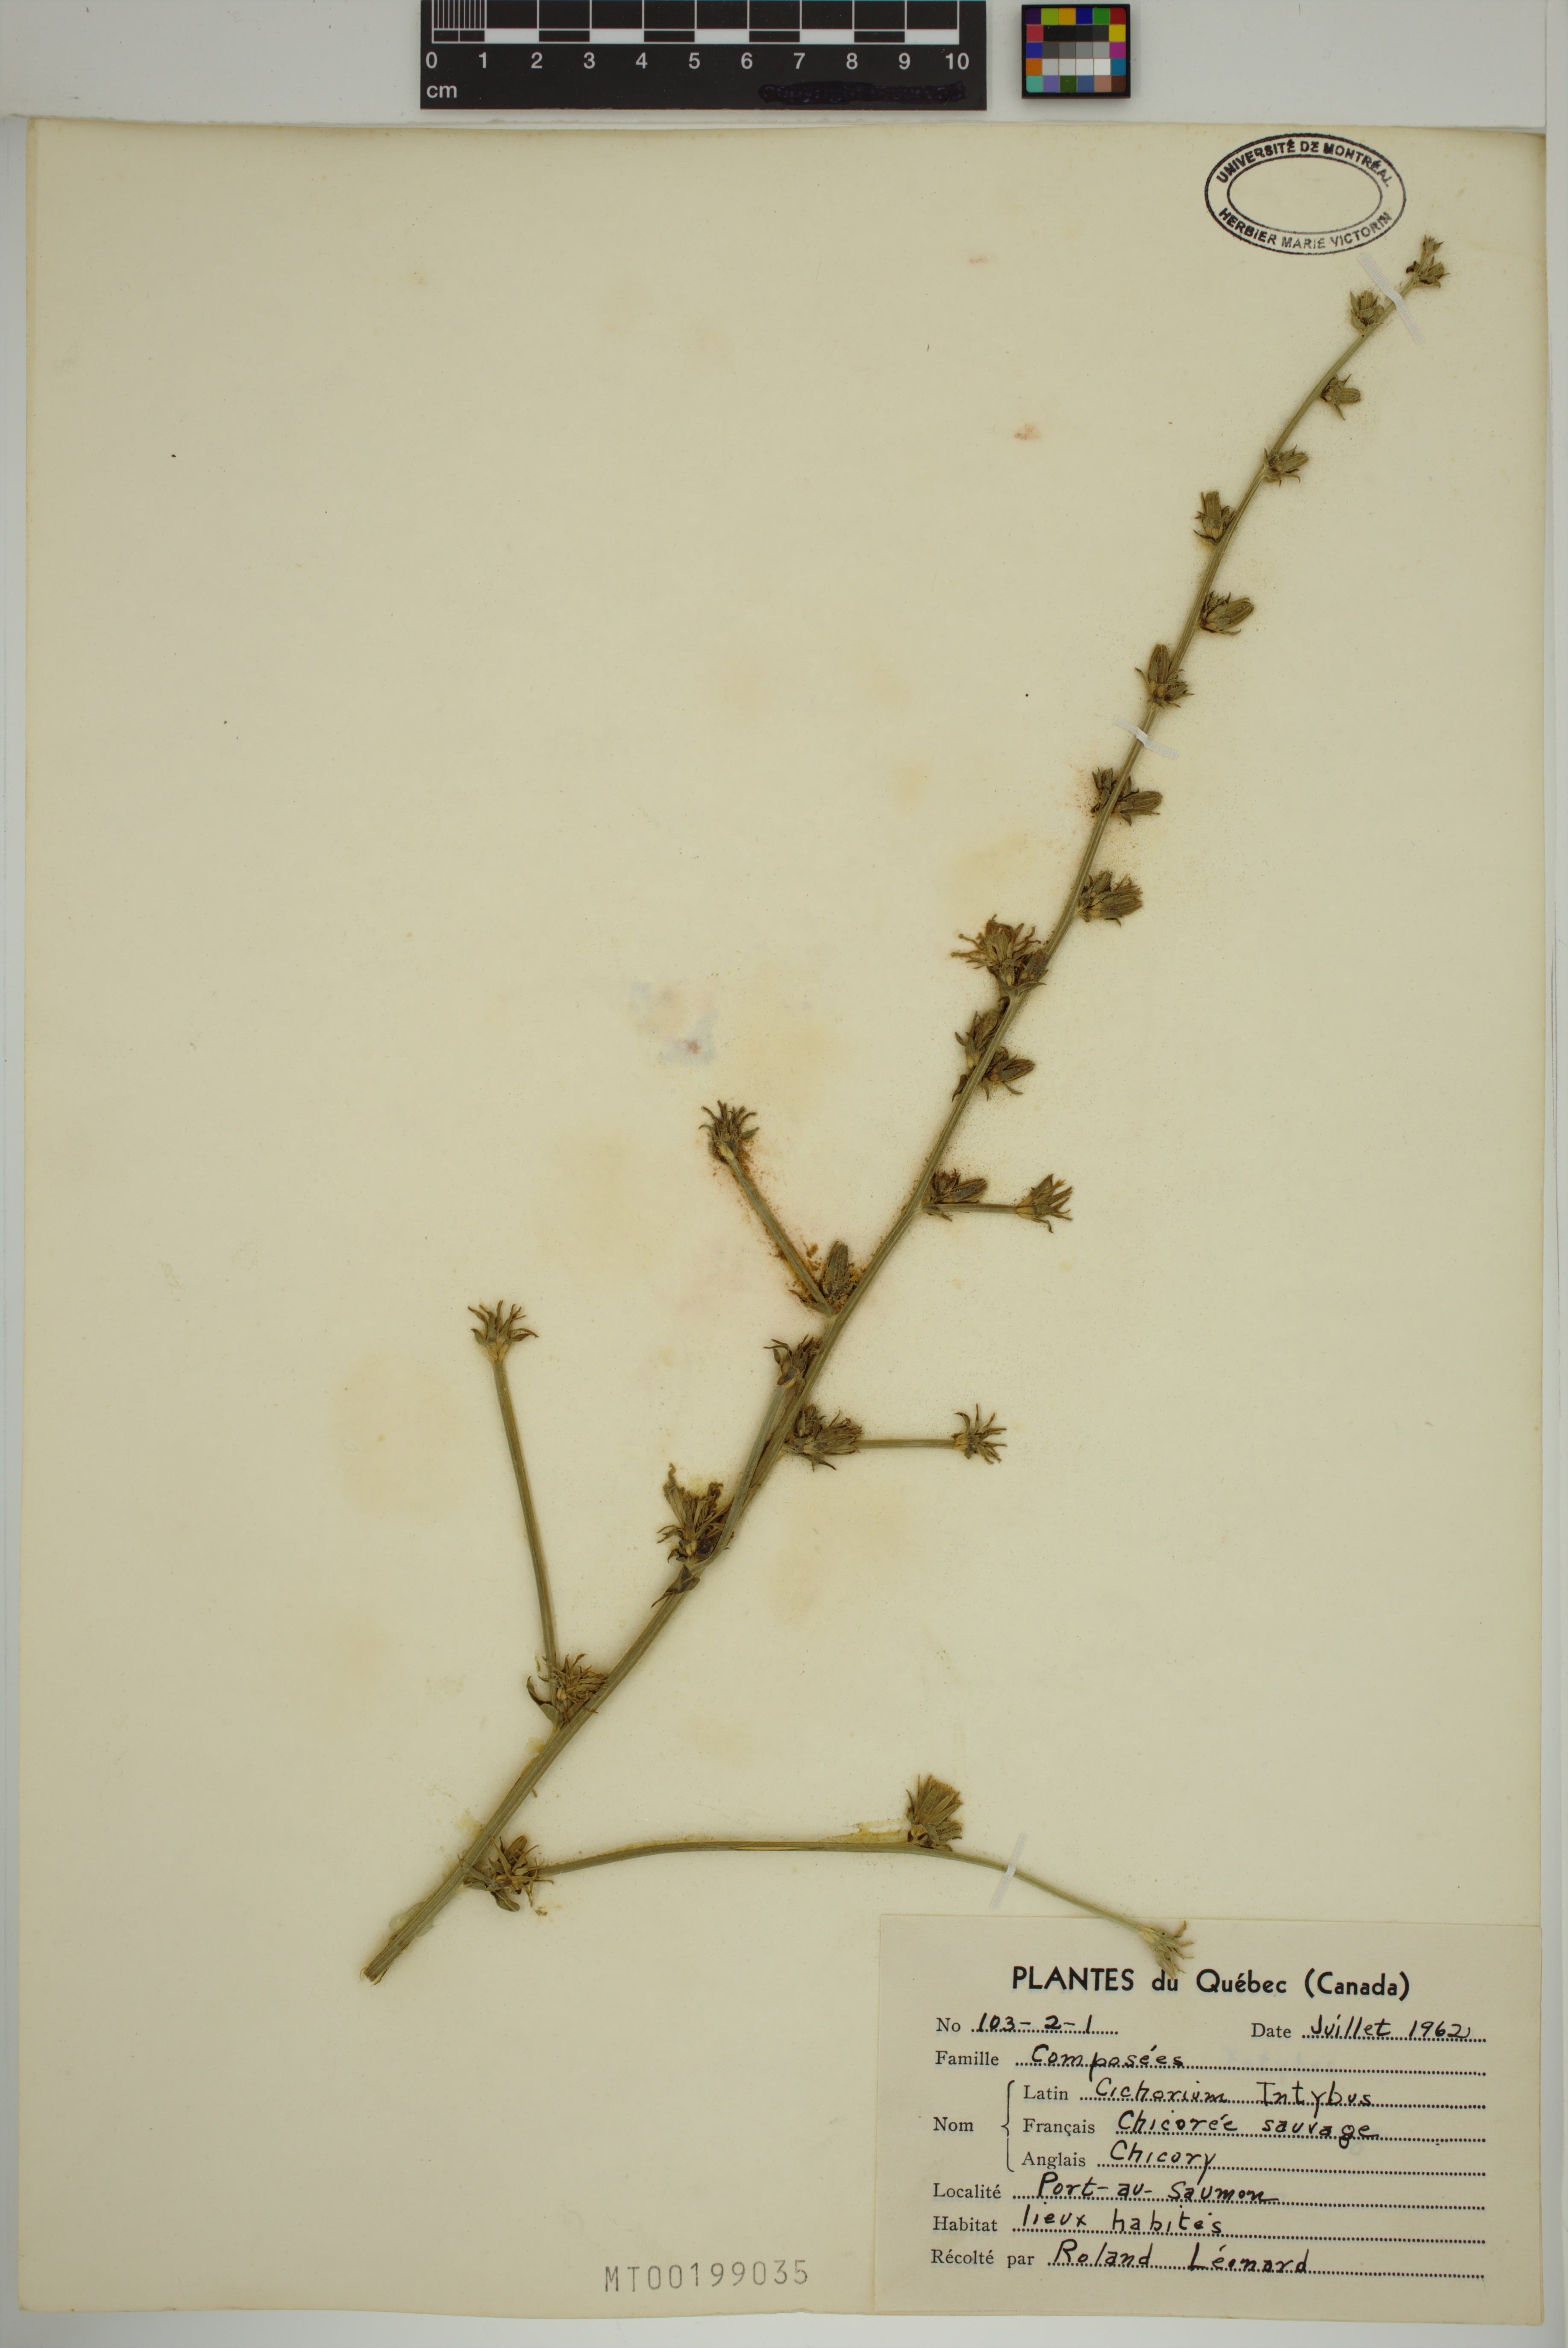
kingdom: Plantae
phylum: Tracheophyta
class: Magnoliopsida
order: Asterales
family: Asteraceae
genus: Cichorium
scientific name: Cichorium intybus
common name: Chicory
